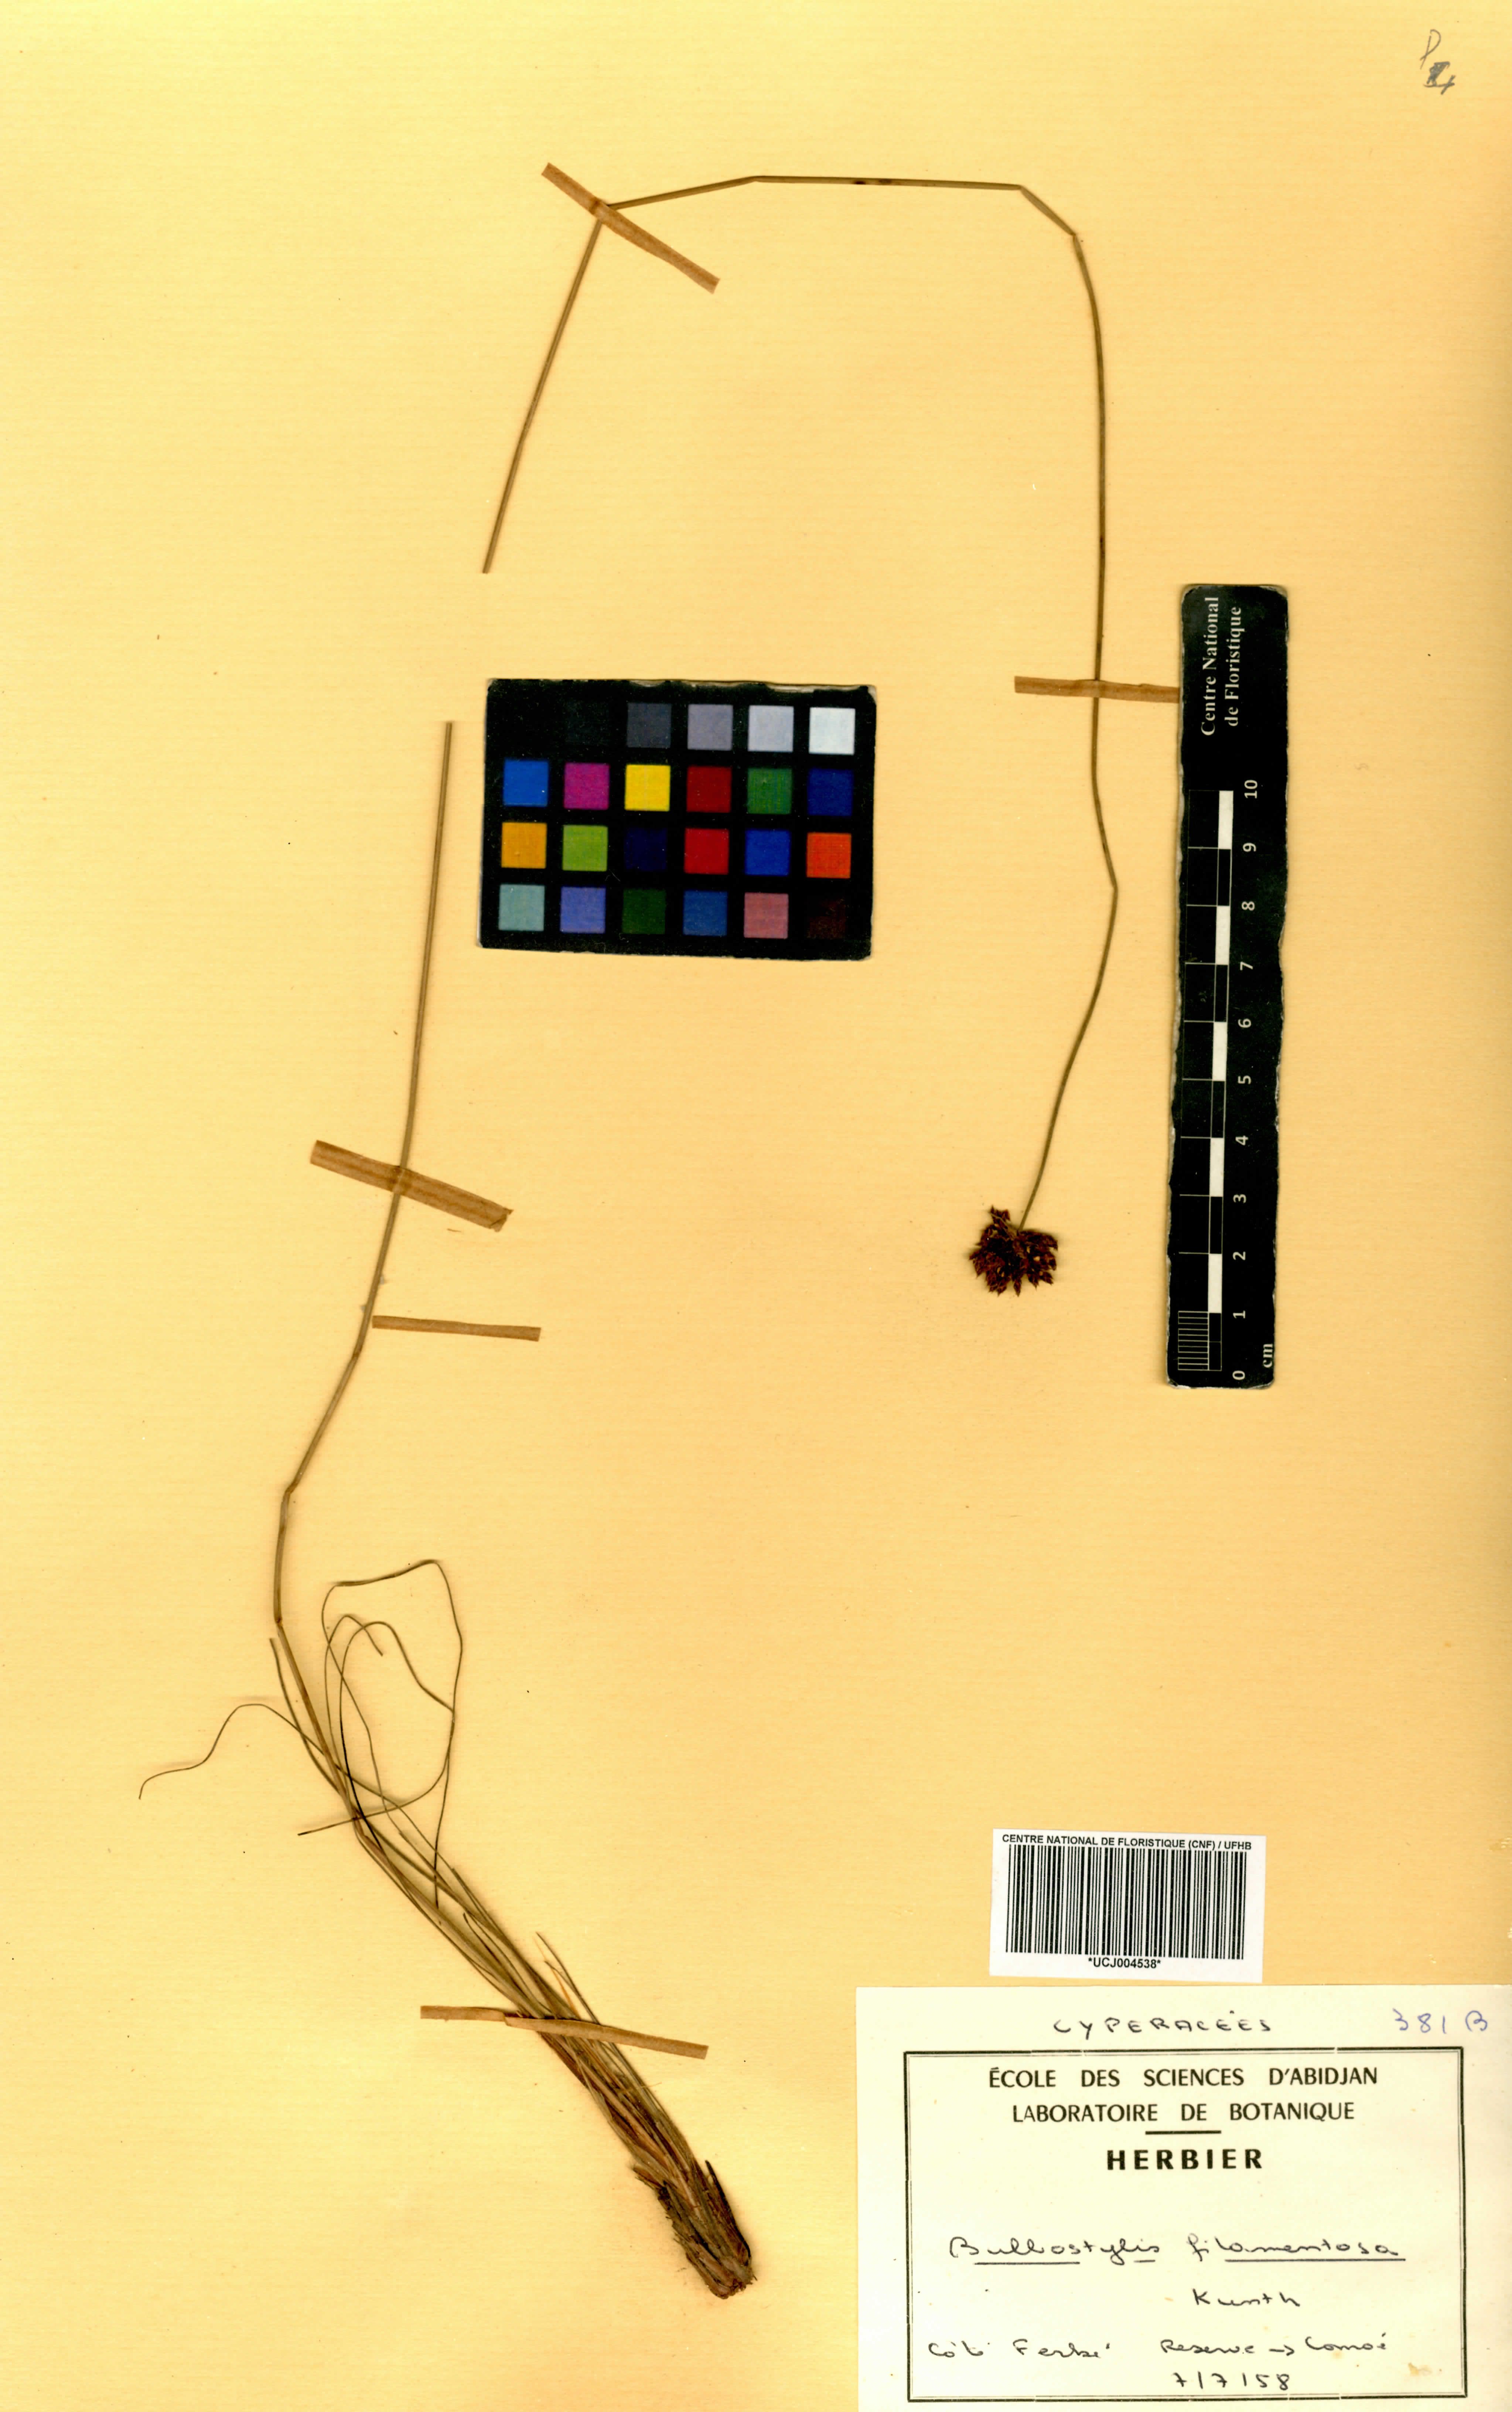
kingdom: Plantae
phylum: Tracheophyta
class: Liliopsida
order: Poales
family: Cyperaceae
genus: Bulbostylis
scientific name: Bulbostylis filamentosa
